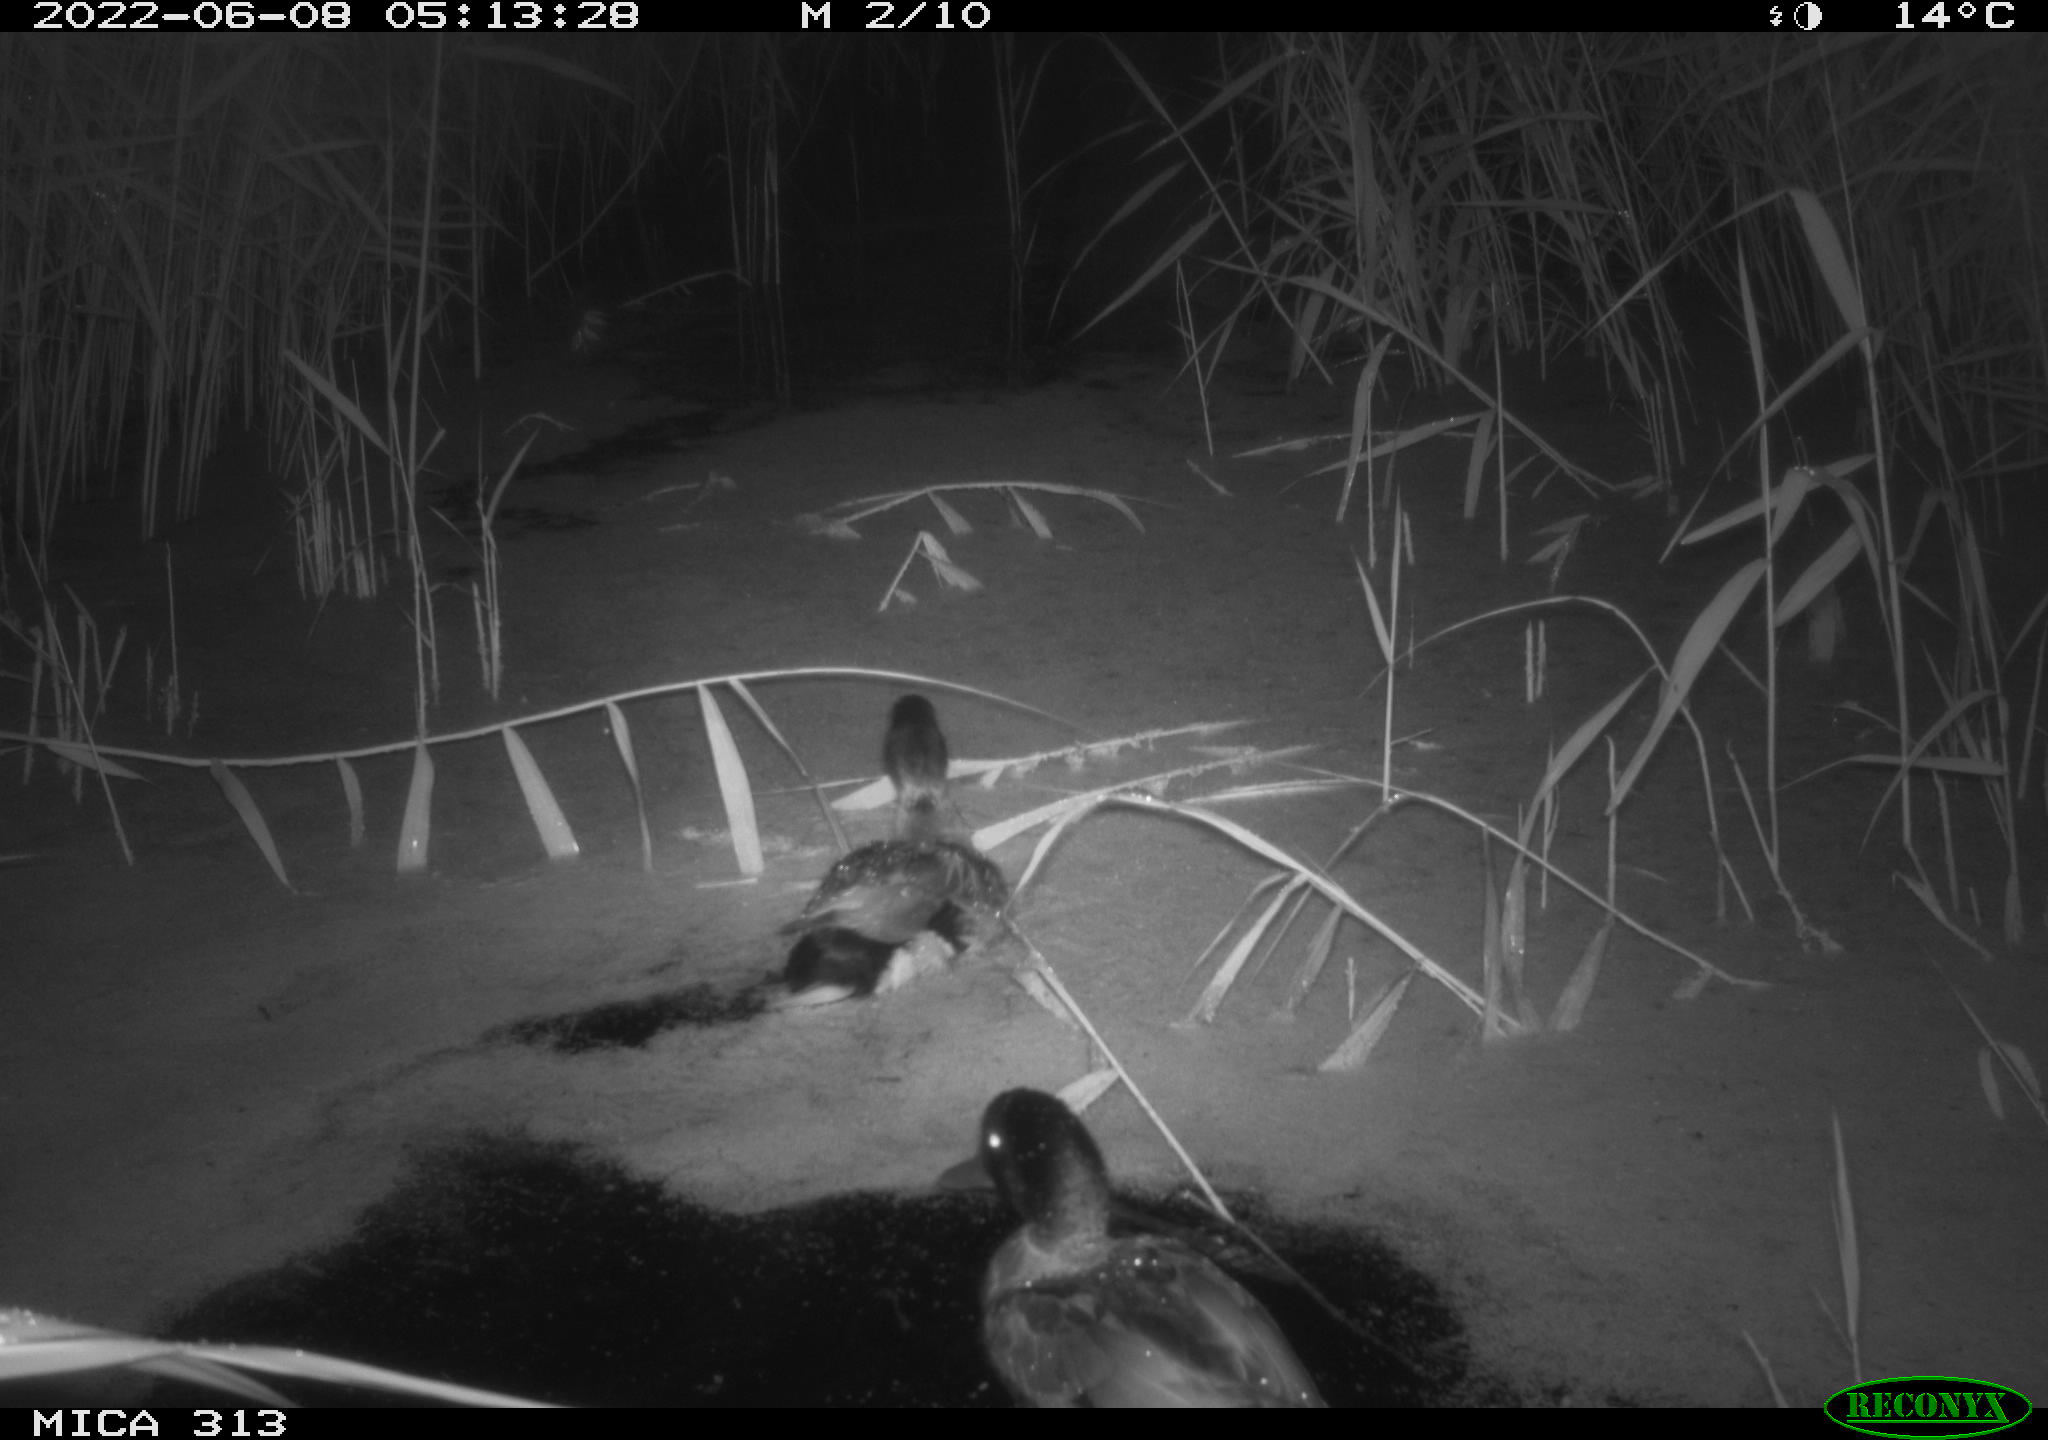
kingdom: Animalia
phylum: Chordata
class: Aves
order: Anseriformes
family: Anatidae
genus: Anas
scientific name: Anas platyrhynchos
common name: Mallard
